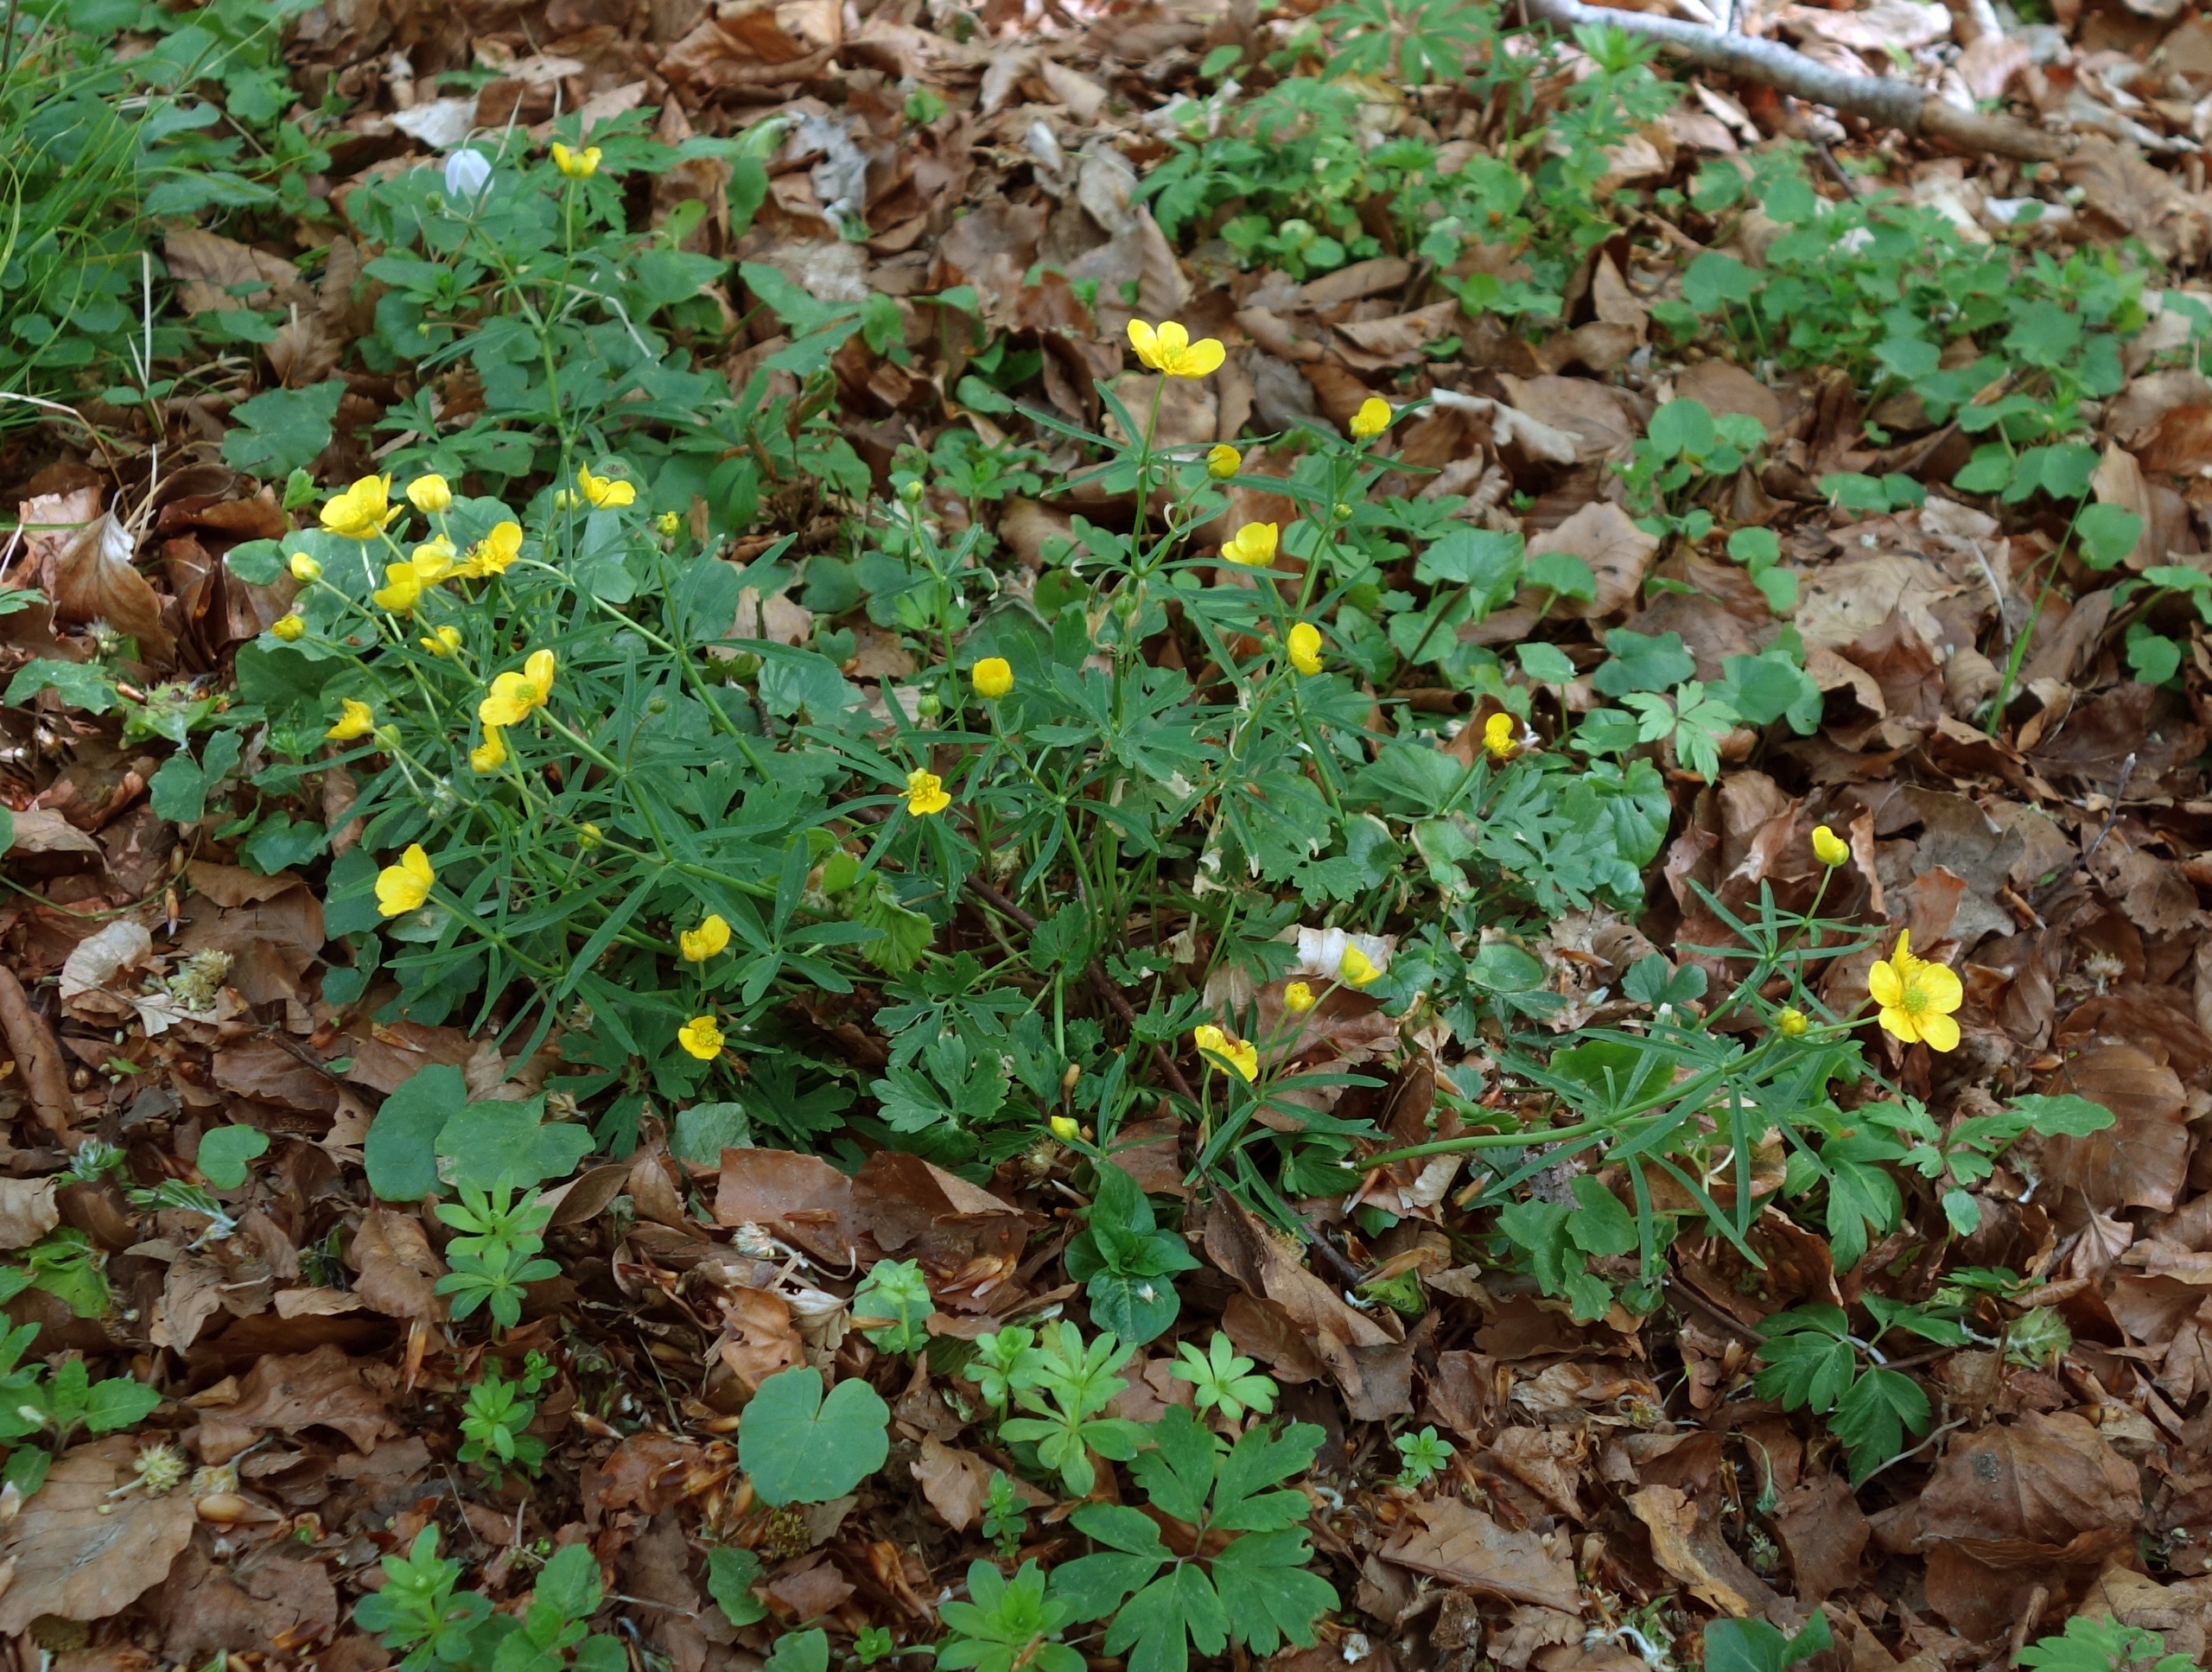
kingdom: Plantae
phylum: Tracheophyta
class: Magnoliopsida
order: Ranunculales
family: Ranunculaceae
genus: Ranunculus
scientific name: Ranunculus auricomus
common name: Nyrebladet ranunkel
